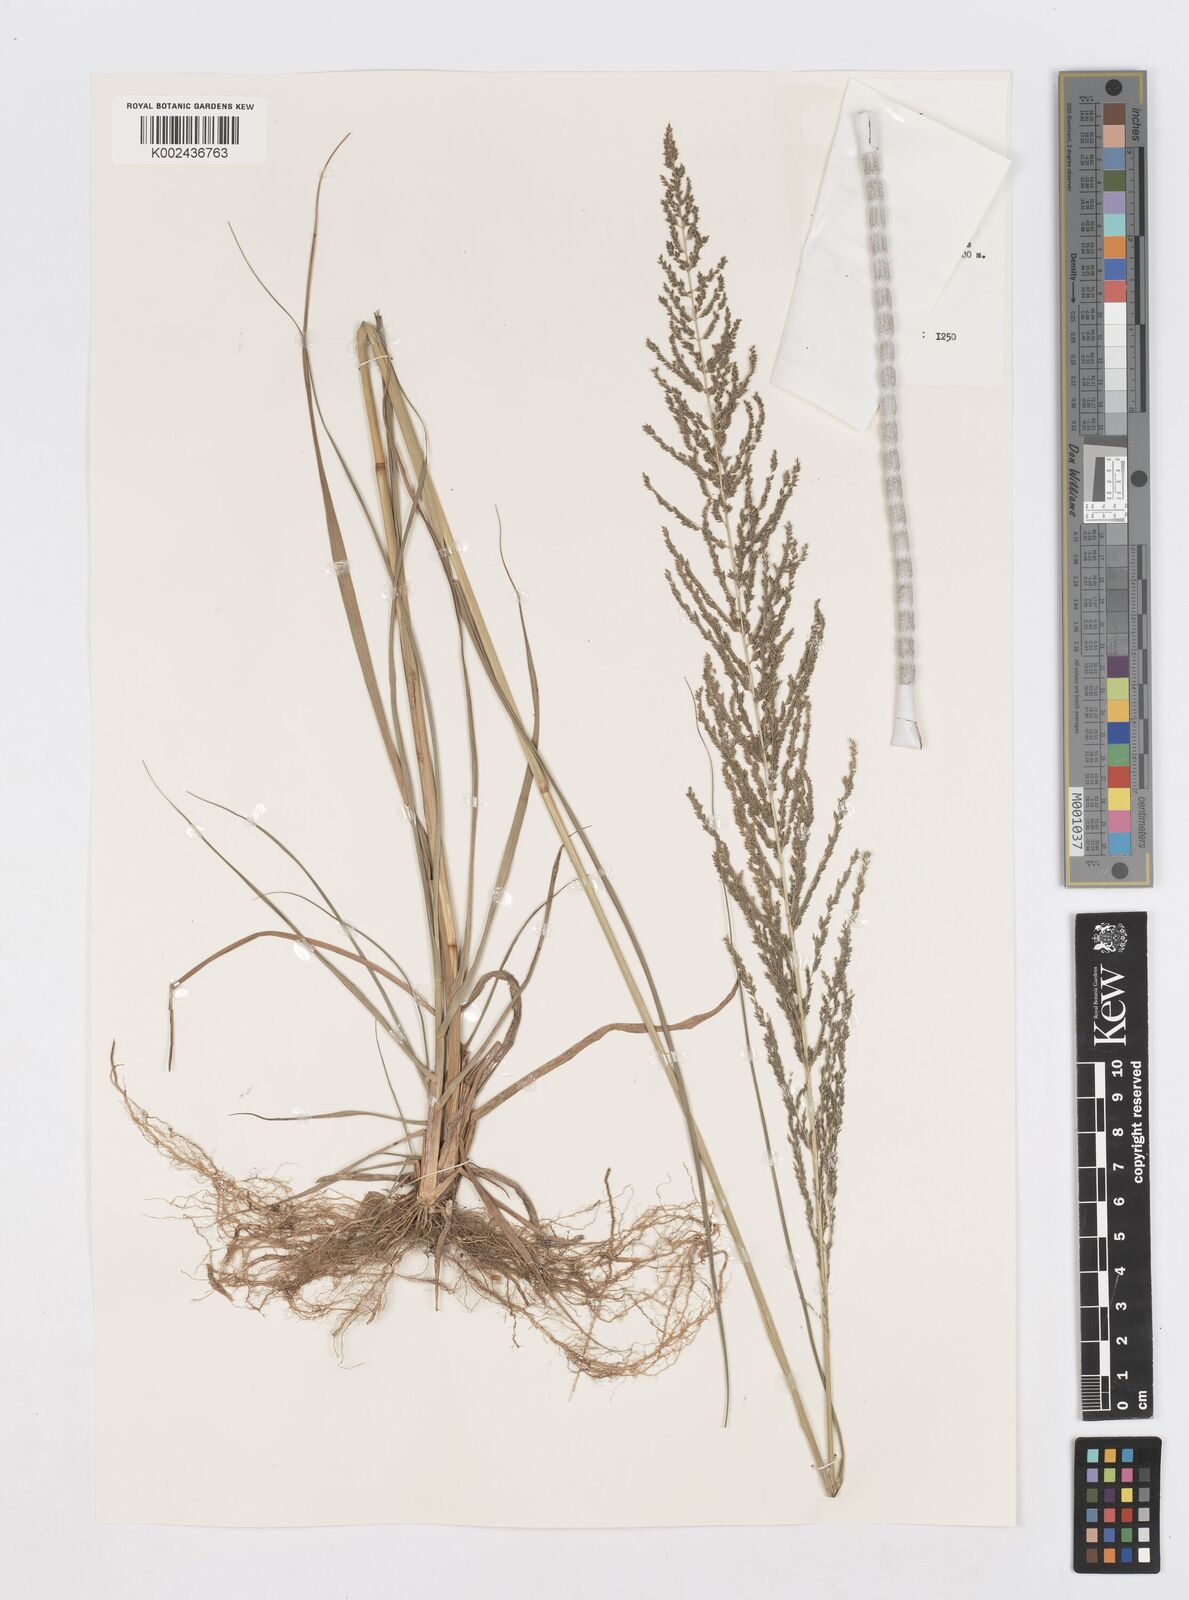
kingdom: Plantae
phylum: Tracheophyta
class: Liliopsida
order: Poales
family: Poaceae
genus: Sporobolus
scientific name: Sporobolus pyramidalis
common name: West indian dropseed
